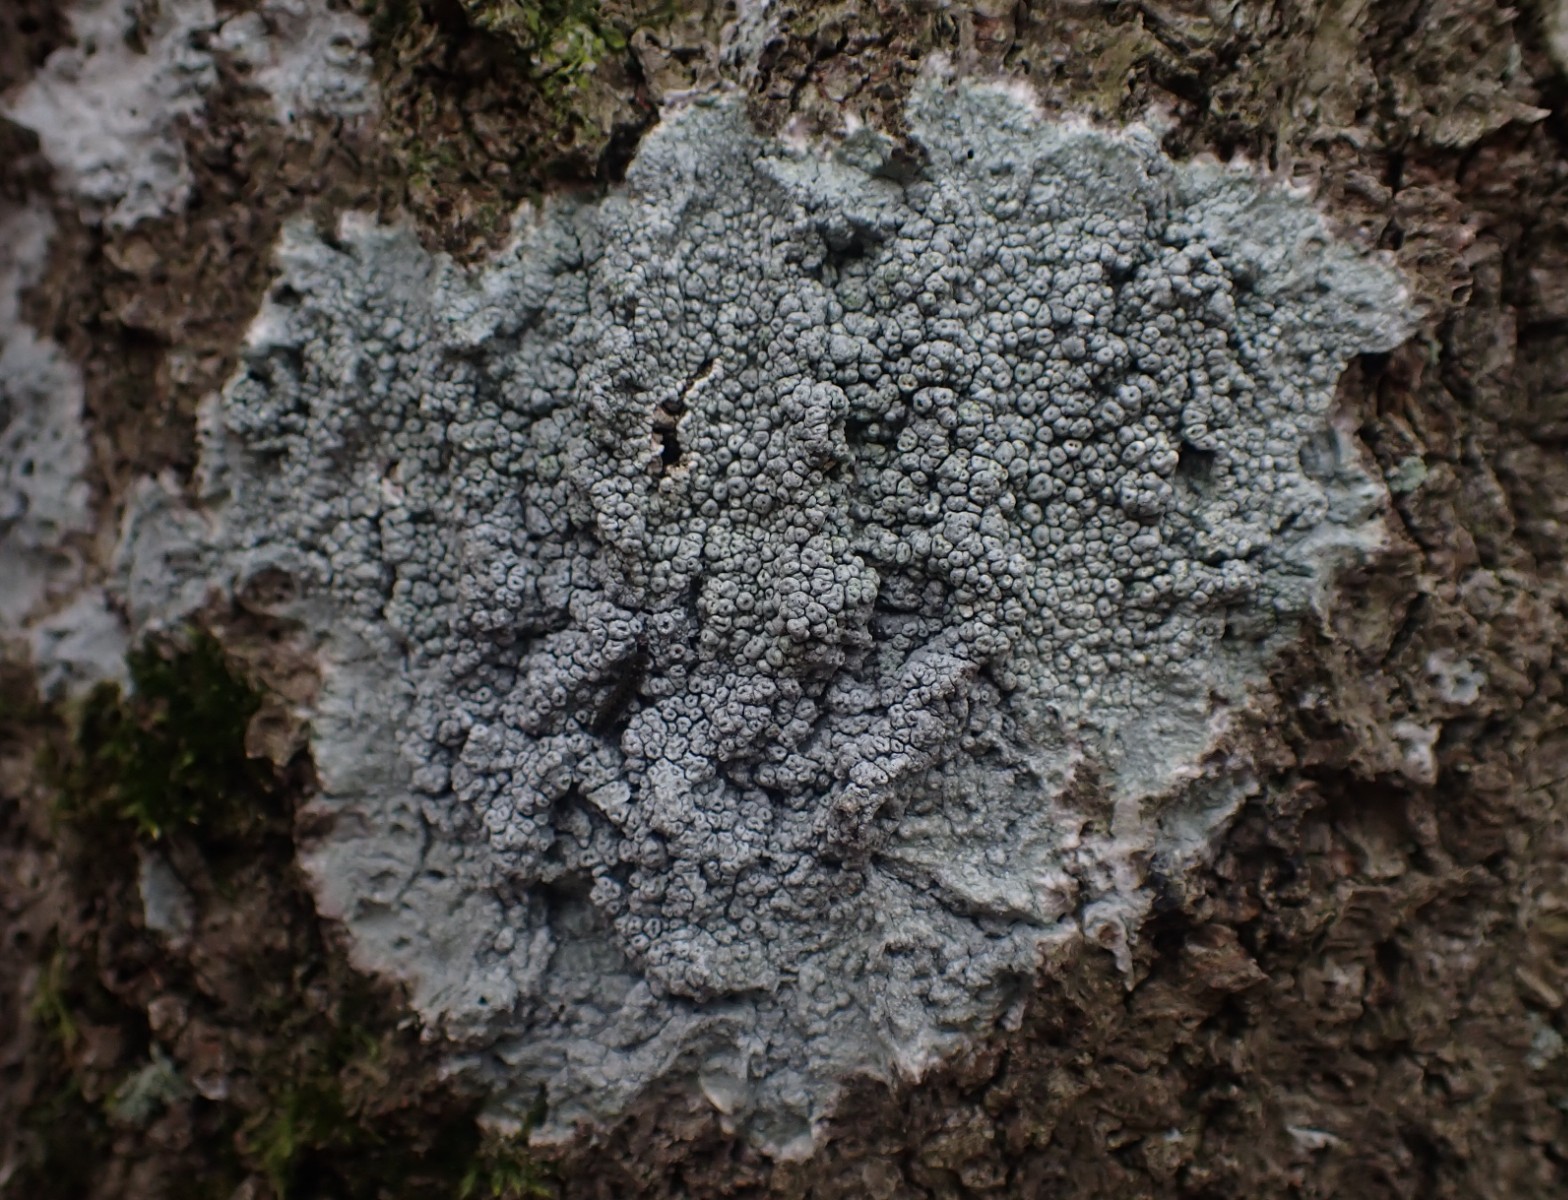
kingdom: Fungi
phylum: Ascomycota
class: Lecanoromycetes
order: Pertusariales
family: Pertusariaceae
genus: Pertusaria
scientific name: Pertusaria pertusa
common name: almindelig prikvortelav
